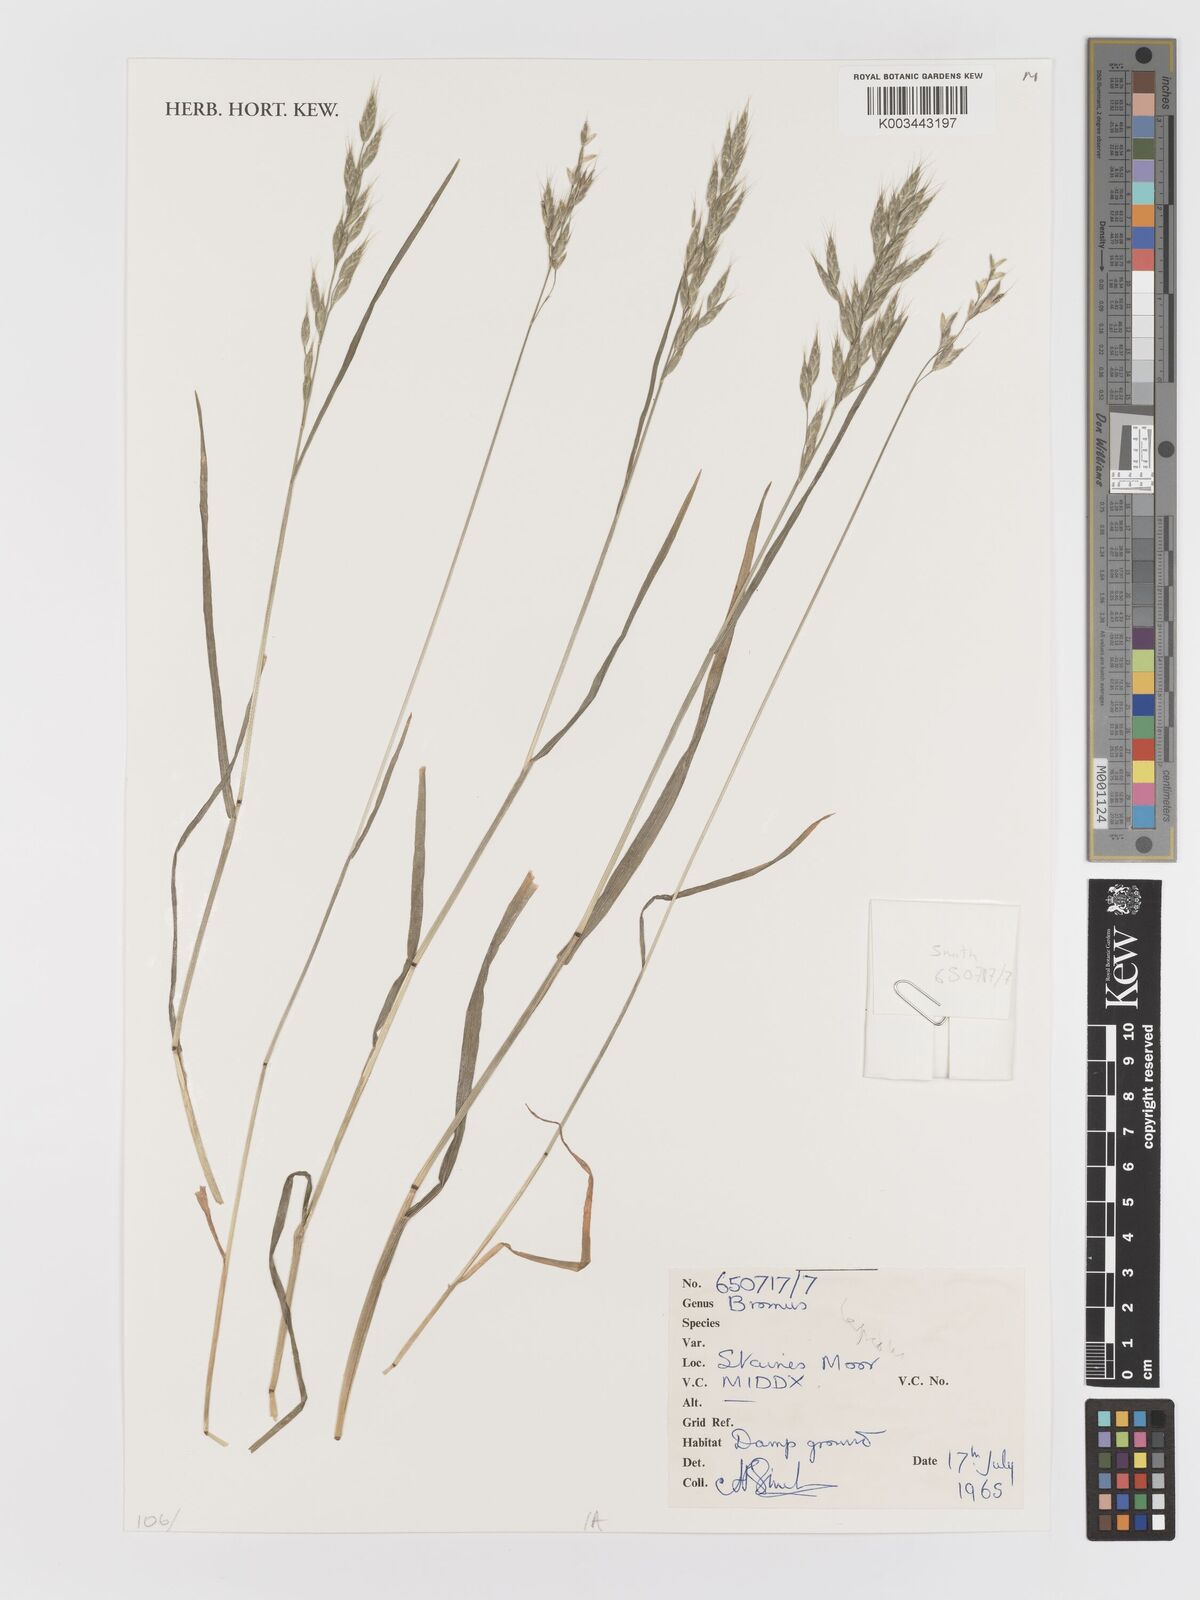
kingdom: Plantae
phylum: Tracheophyta
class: Liliopsida
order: Poales
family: Poaceae
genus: Bromus
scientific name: Bromus
